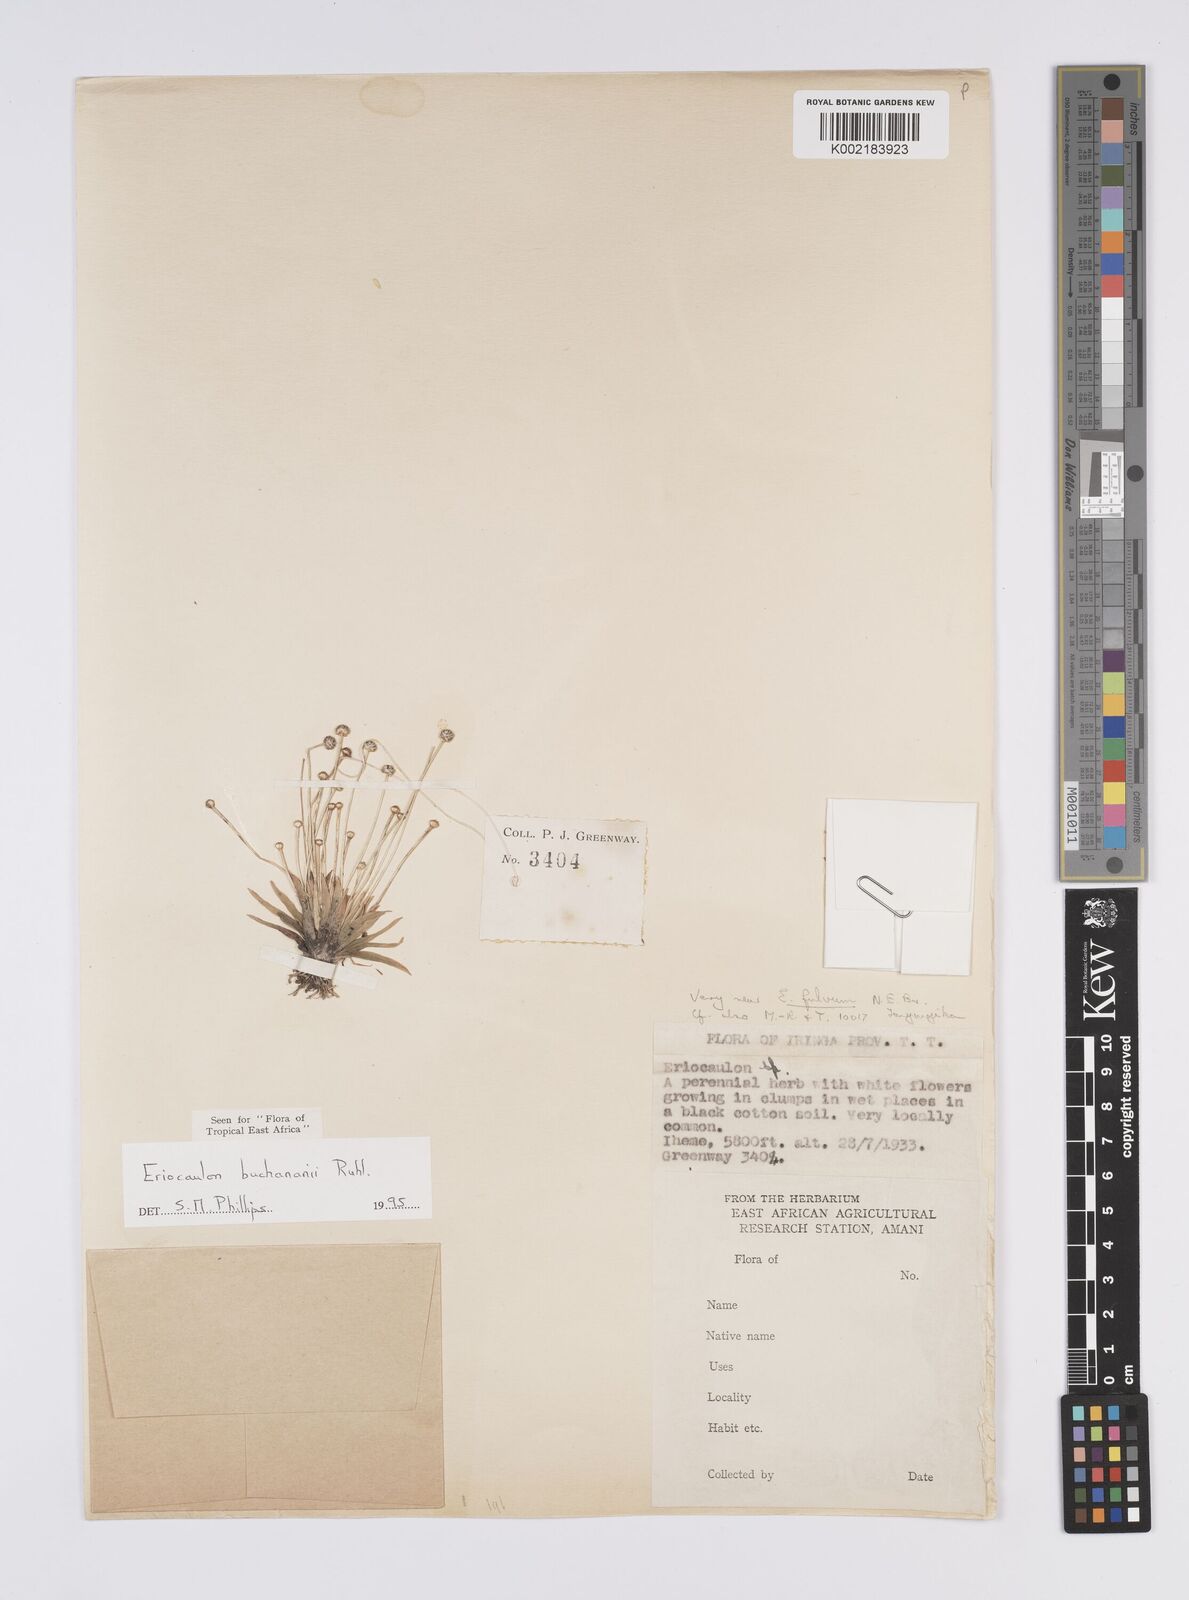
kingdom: Plantae
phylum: Tracheophyta
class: Liliopsida
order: Poales
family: Eriocaulaceae
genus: Eriocaulon
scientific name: Eriocaulon buchananii
